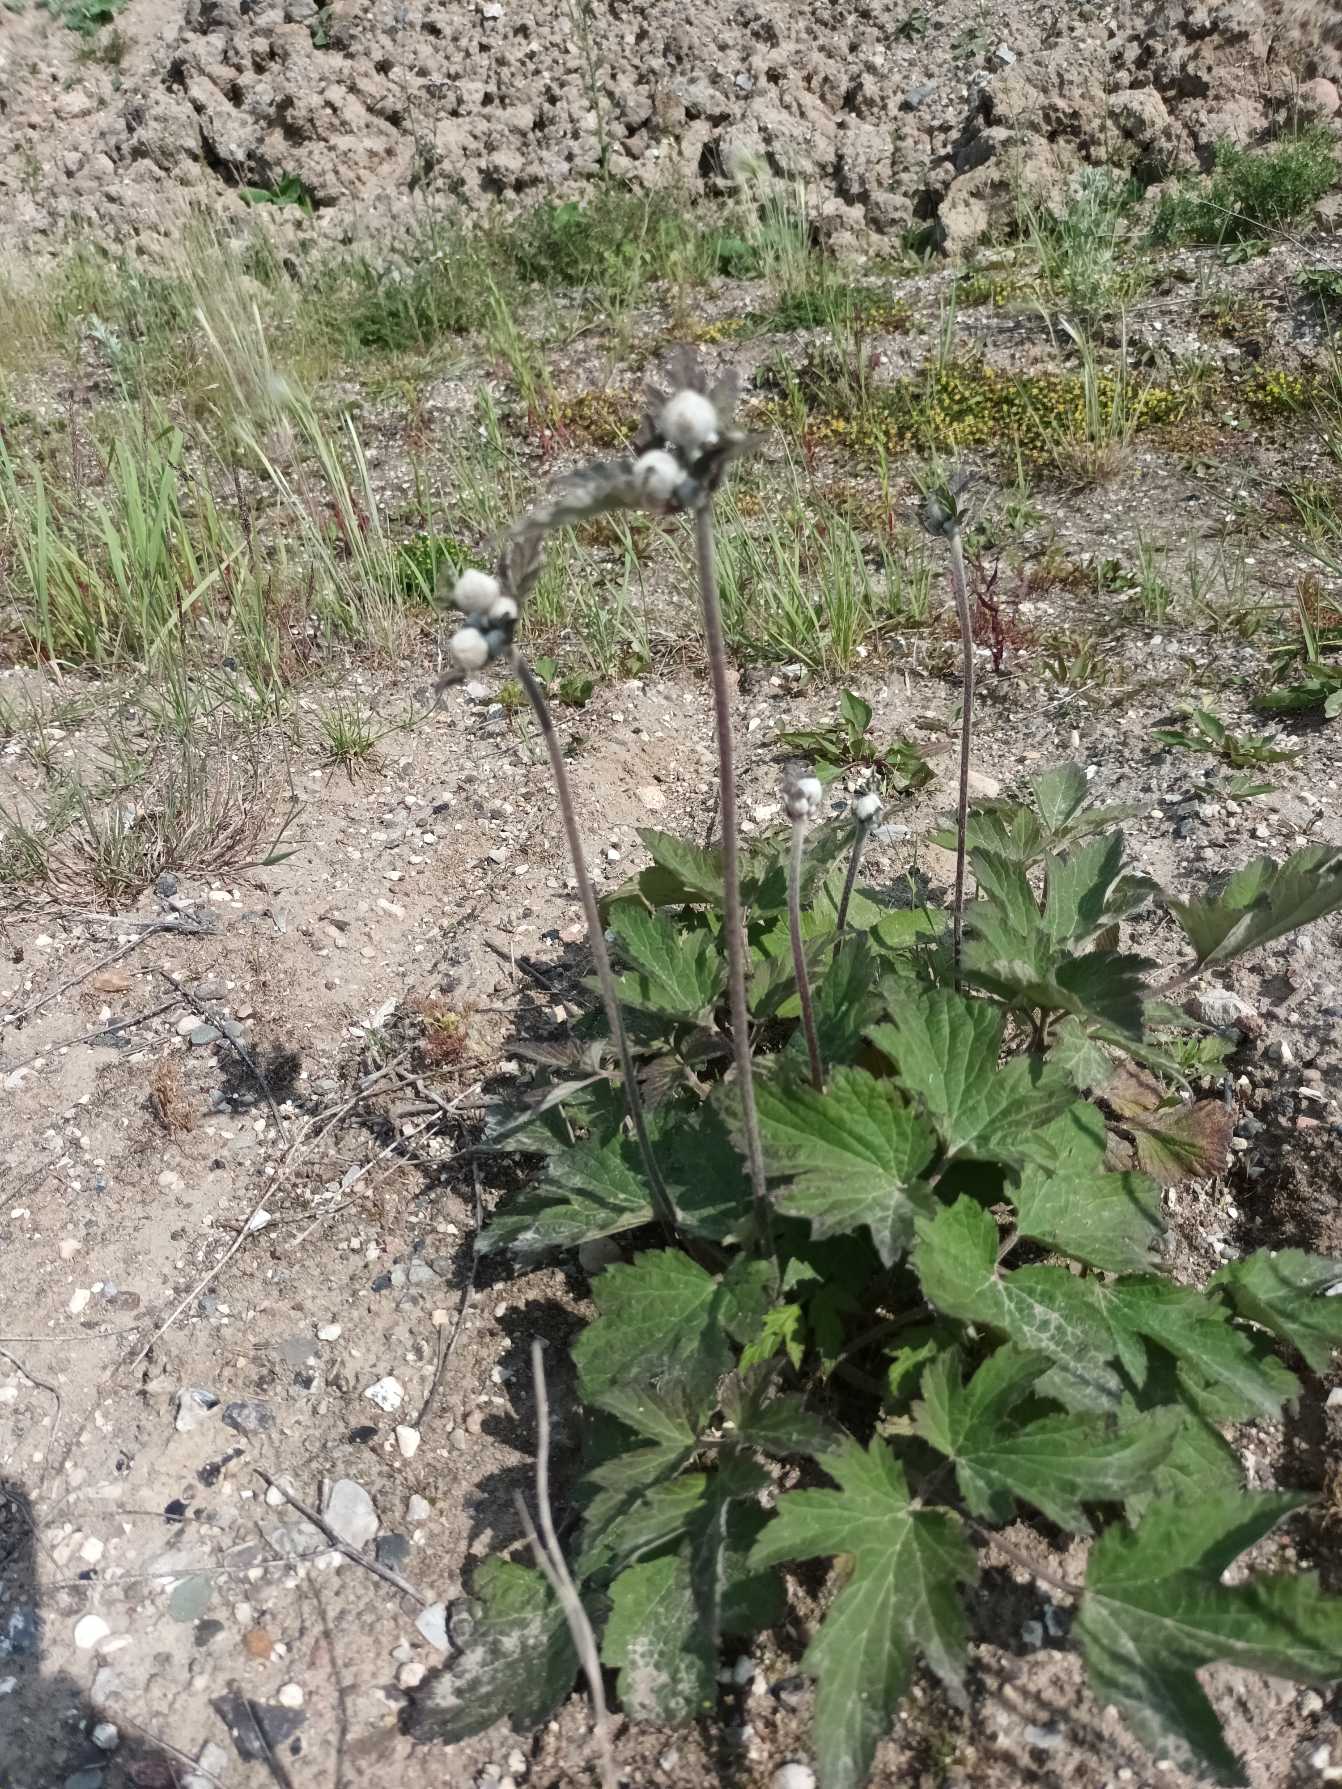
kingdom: Plantae
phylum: Tracheophyta
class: Magnoliopsida
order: Ranunculales
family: Ranunculaceae
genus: Eriocapitella
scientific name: Eriocapitella hupehensis
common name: Høst-anemone
